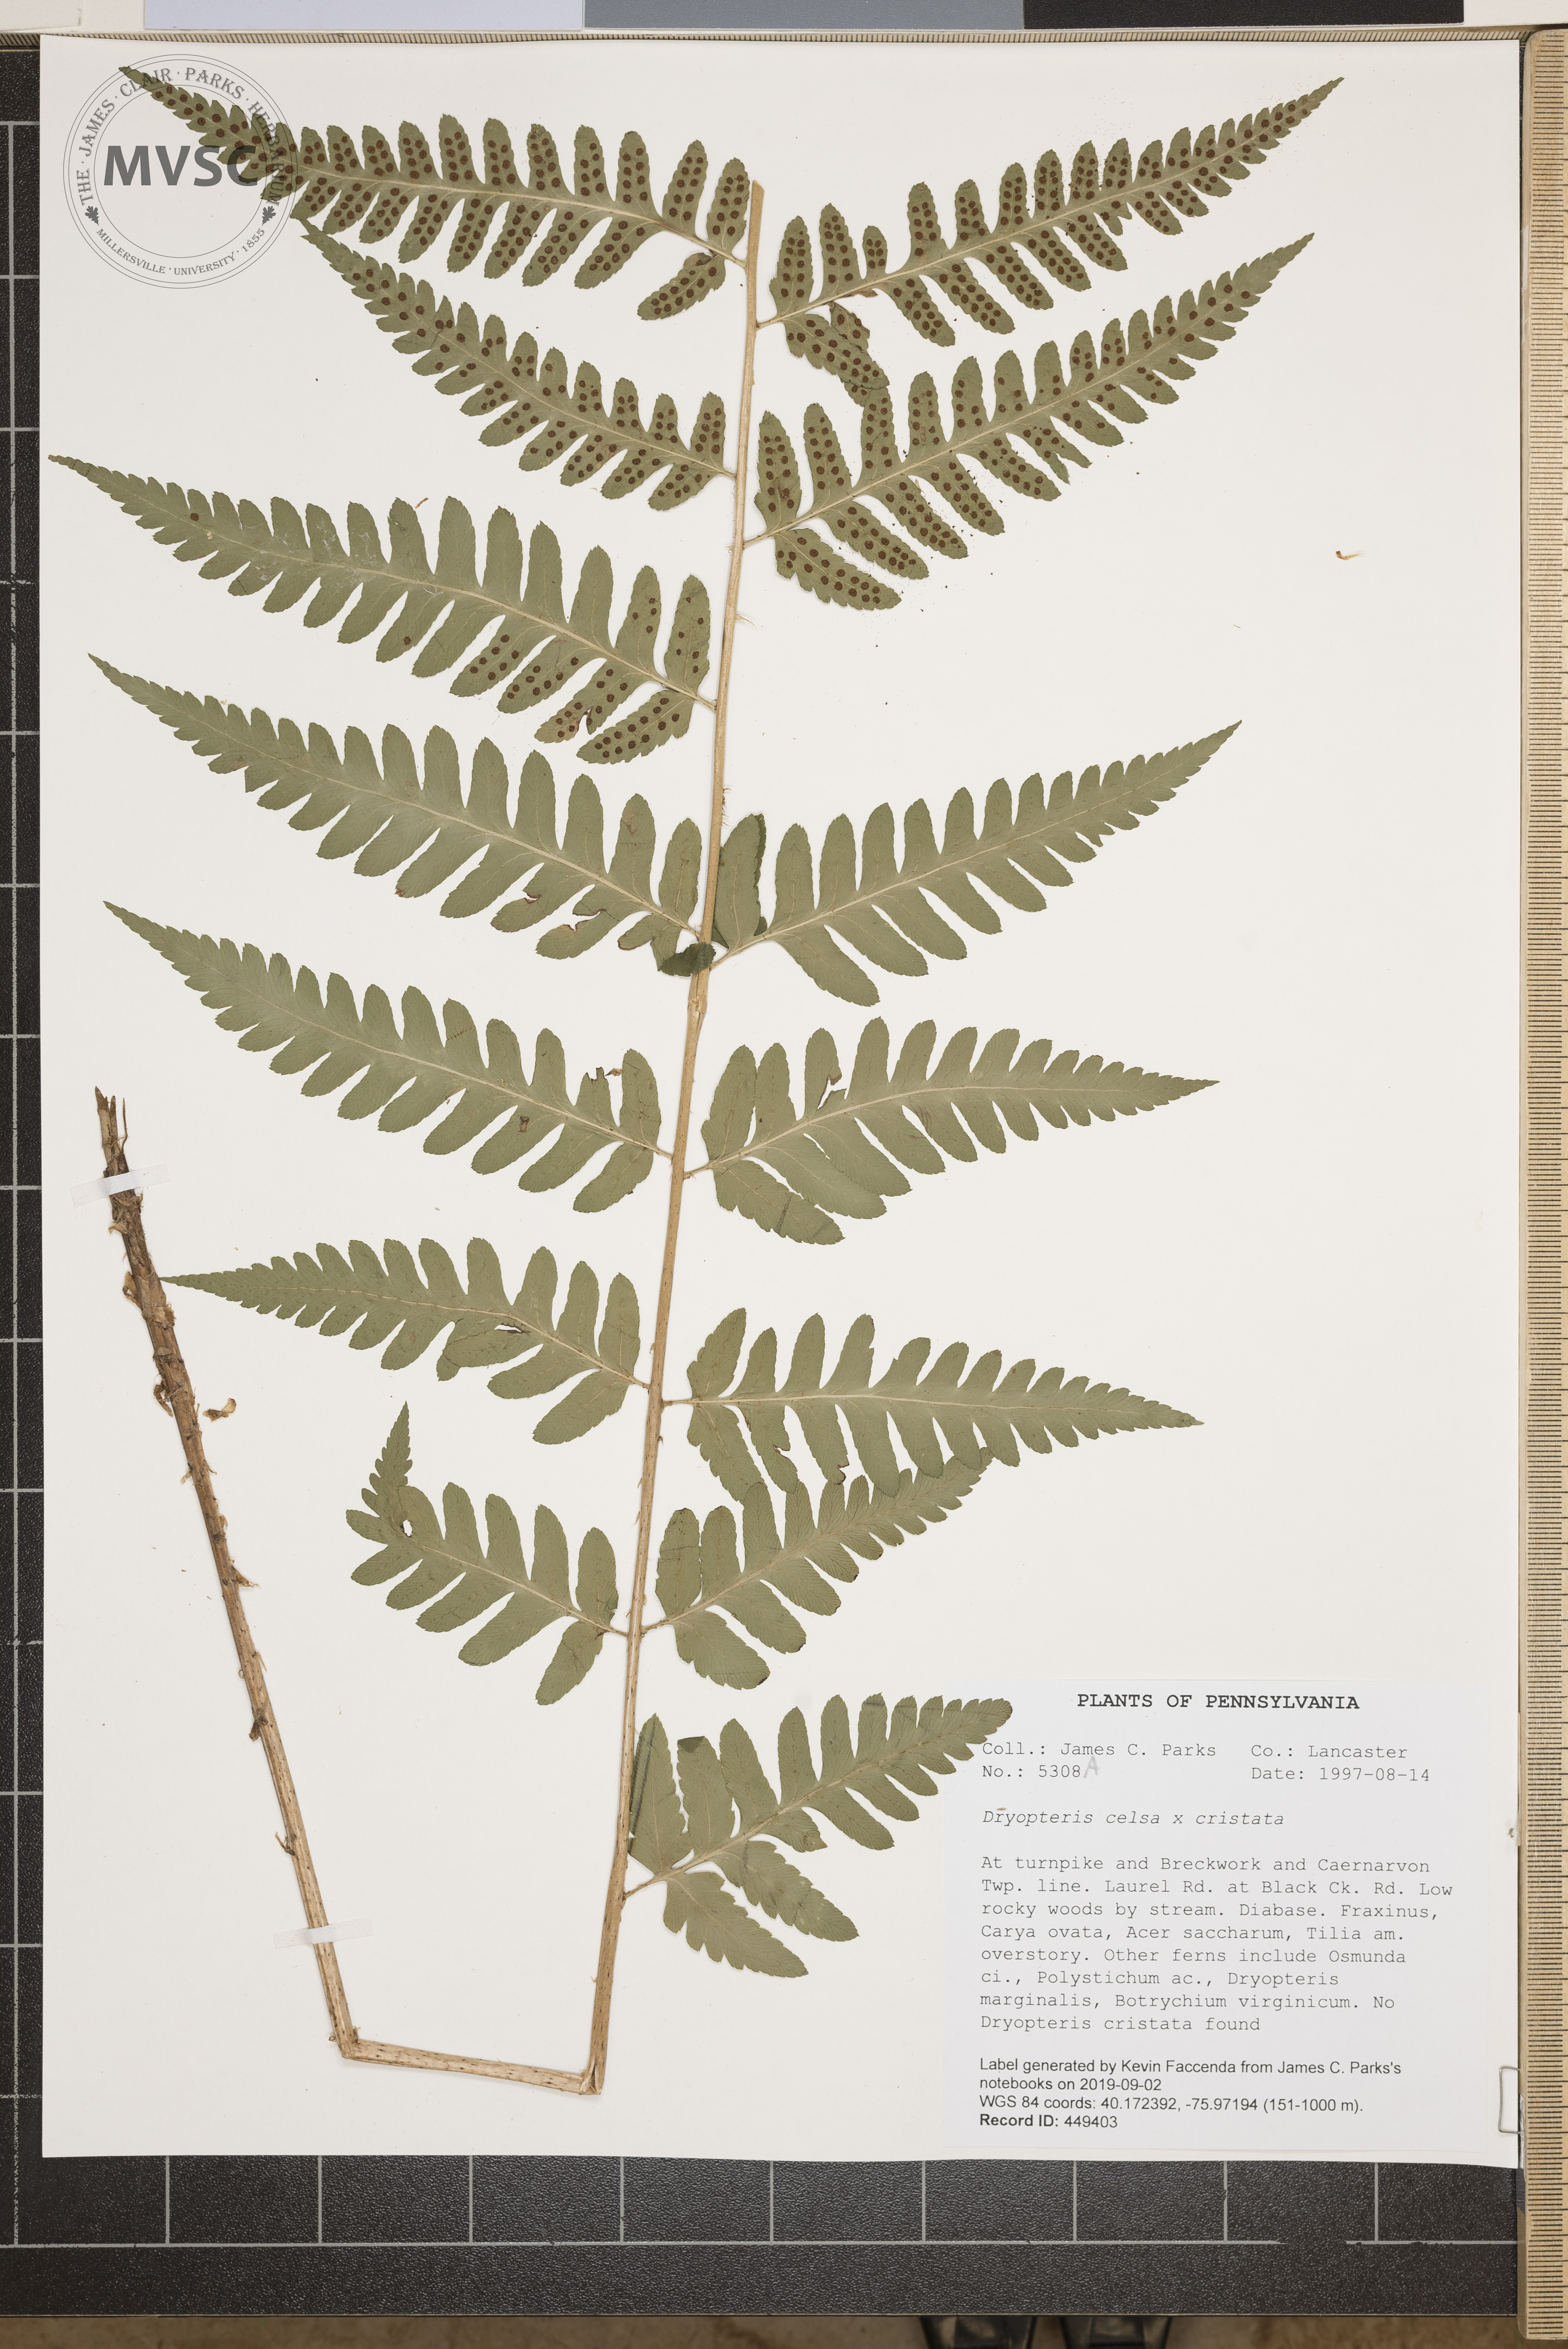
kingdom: Plantae
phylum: Tracheophyta
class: Polypodiopsida
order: Polypodiales
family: Dryopteridaceae
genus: Dryopteris
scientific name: Dryopteris
